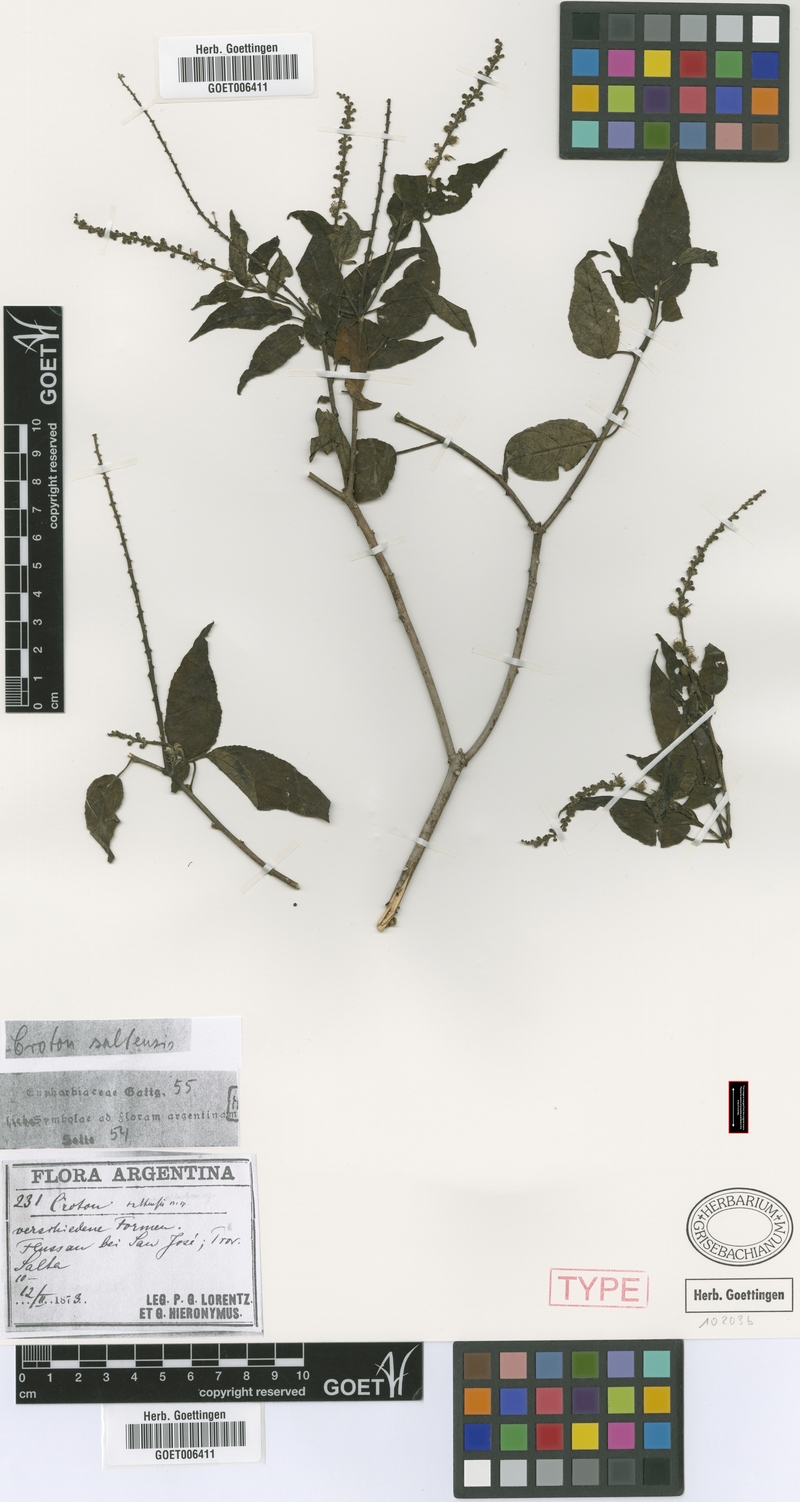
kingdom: Plantae
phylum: Tracheophyta
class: Magnoliopsida
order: Malpighiales
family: Euphorbiaceae
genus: Croton
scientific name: Croton saltensis
